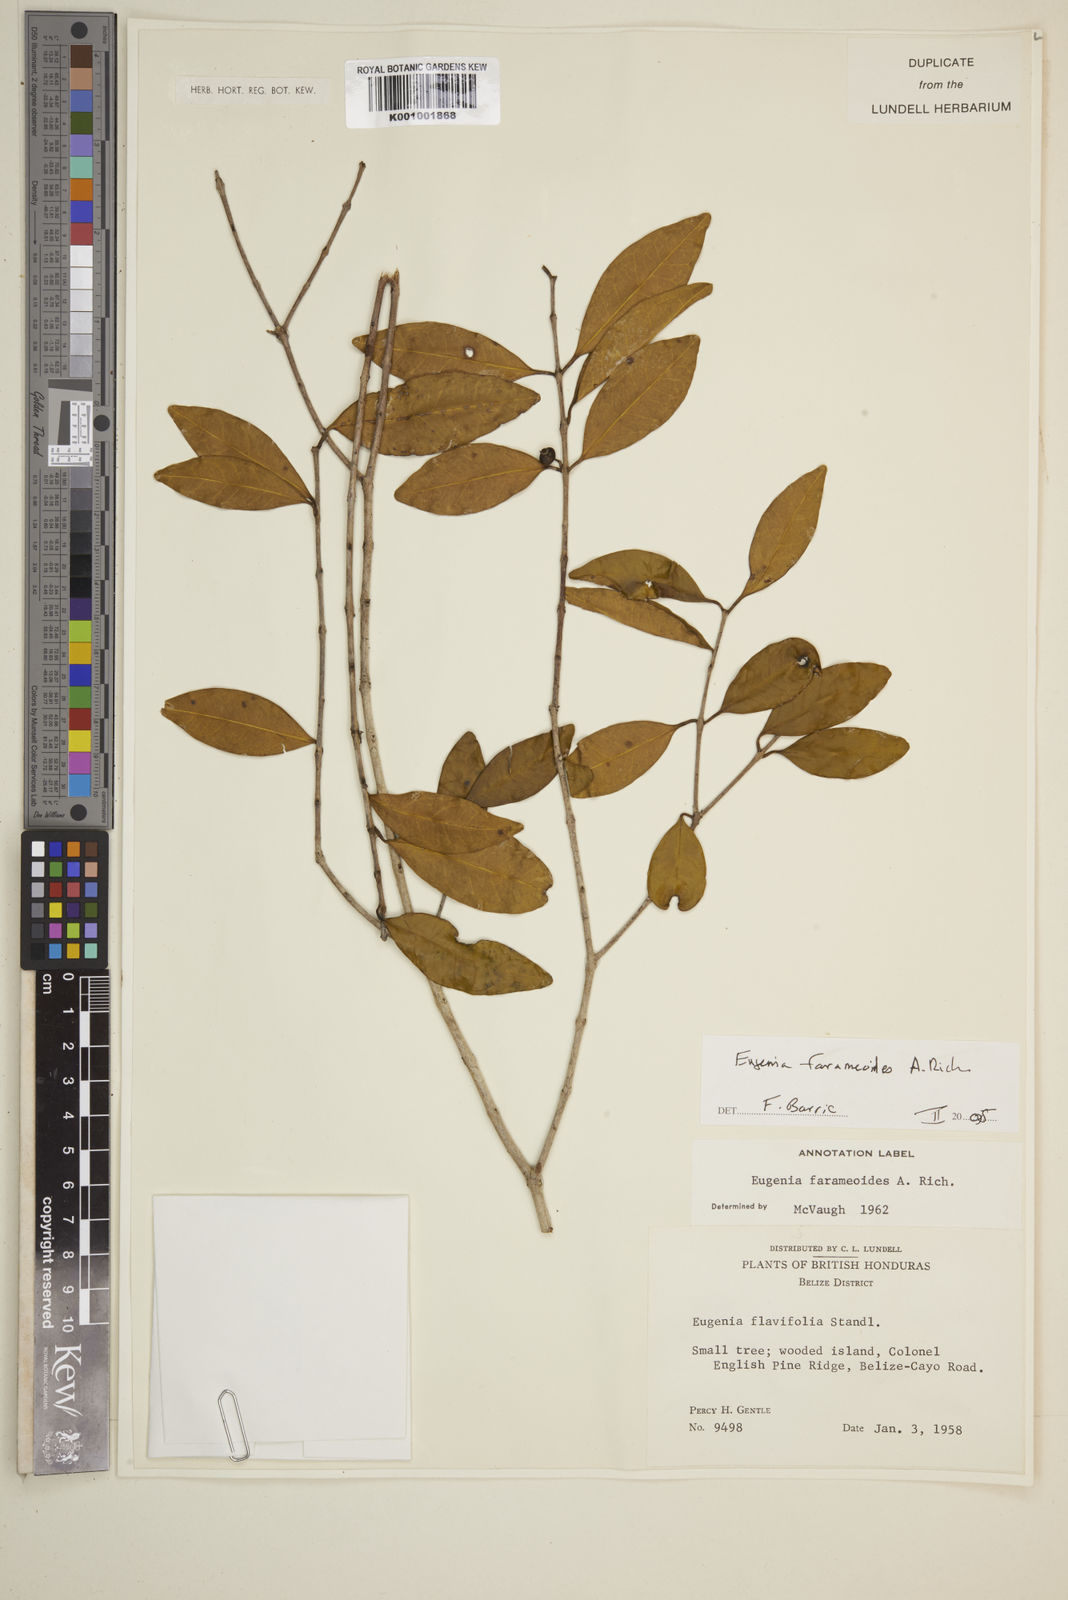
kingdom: Plantae
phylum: Tracheophyta
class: Magnoliopsida
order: Myrtales
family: Myrtaceae
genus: Eugenia
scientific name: Eugenia farameoides
